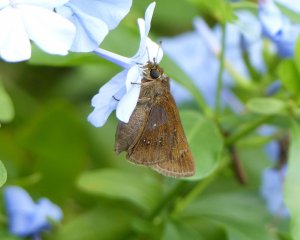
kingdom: Animalia
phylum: Arthropoda
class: Insecta
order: Lepidoptera
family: Hesperiidae
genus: Decinea
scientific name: Decinea percosius
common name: Double-dotted Skipper
